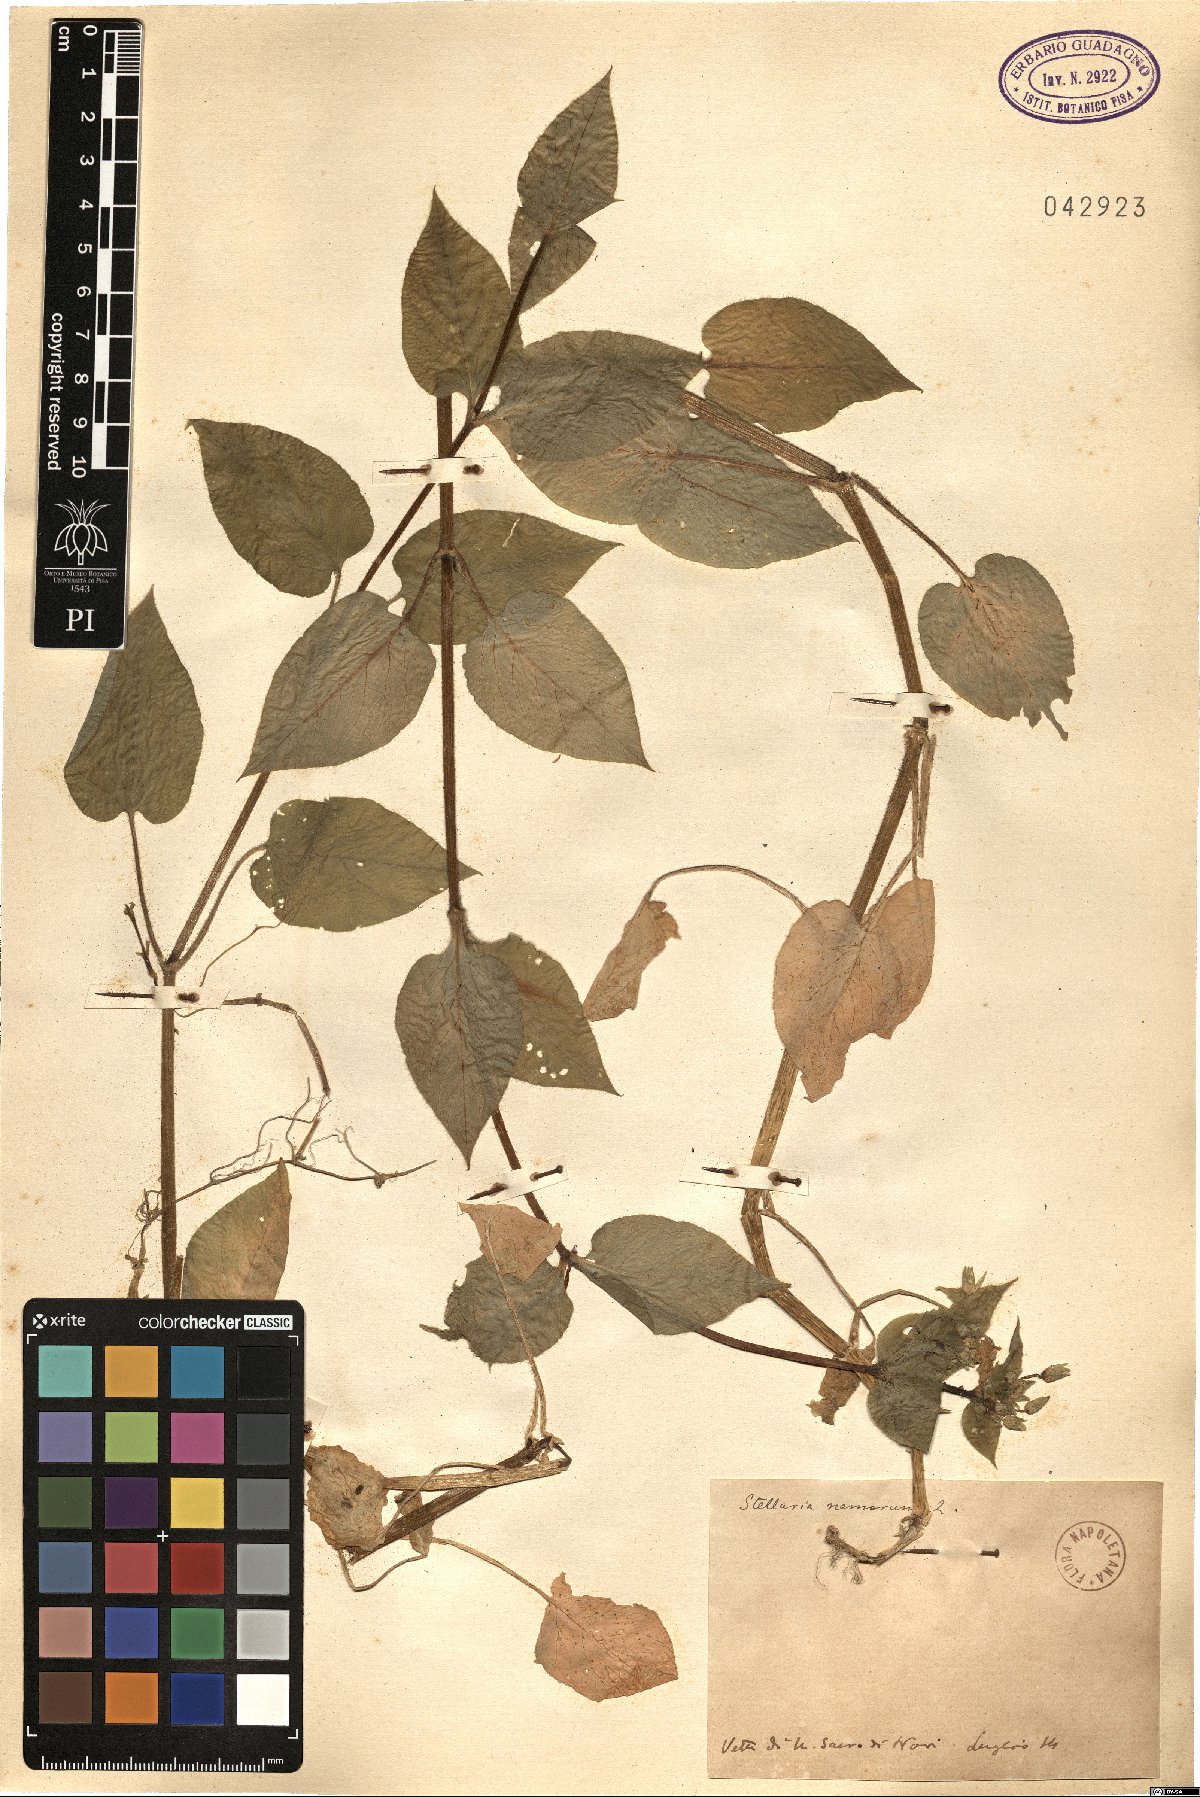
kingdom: Plantae
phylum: Tracheophyta
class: Magnoliopsida
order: Caryophyllales
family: Caryophyllaceae
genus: Stellaria
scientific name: Stellaria nemorum
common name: Wood stitchwort
